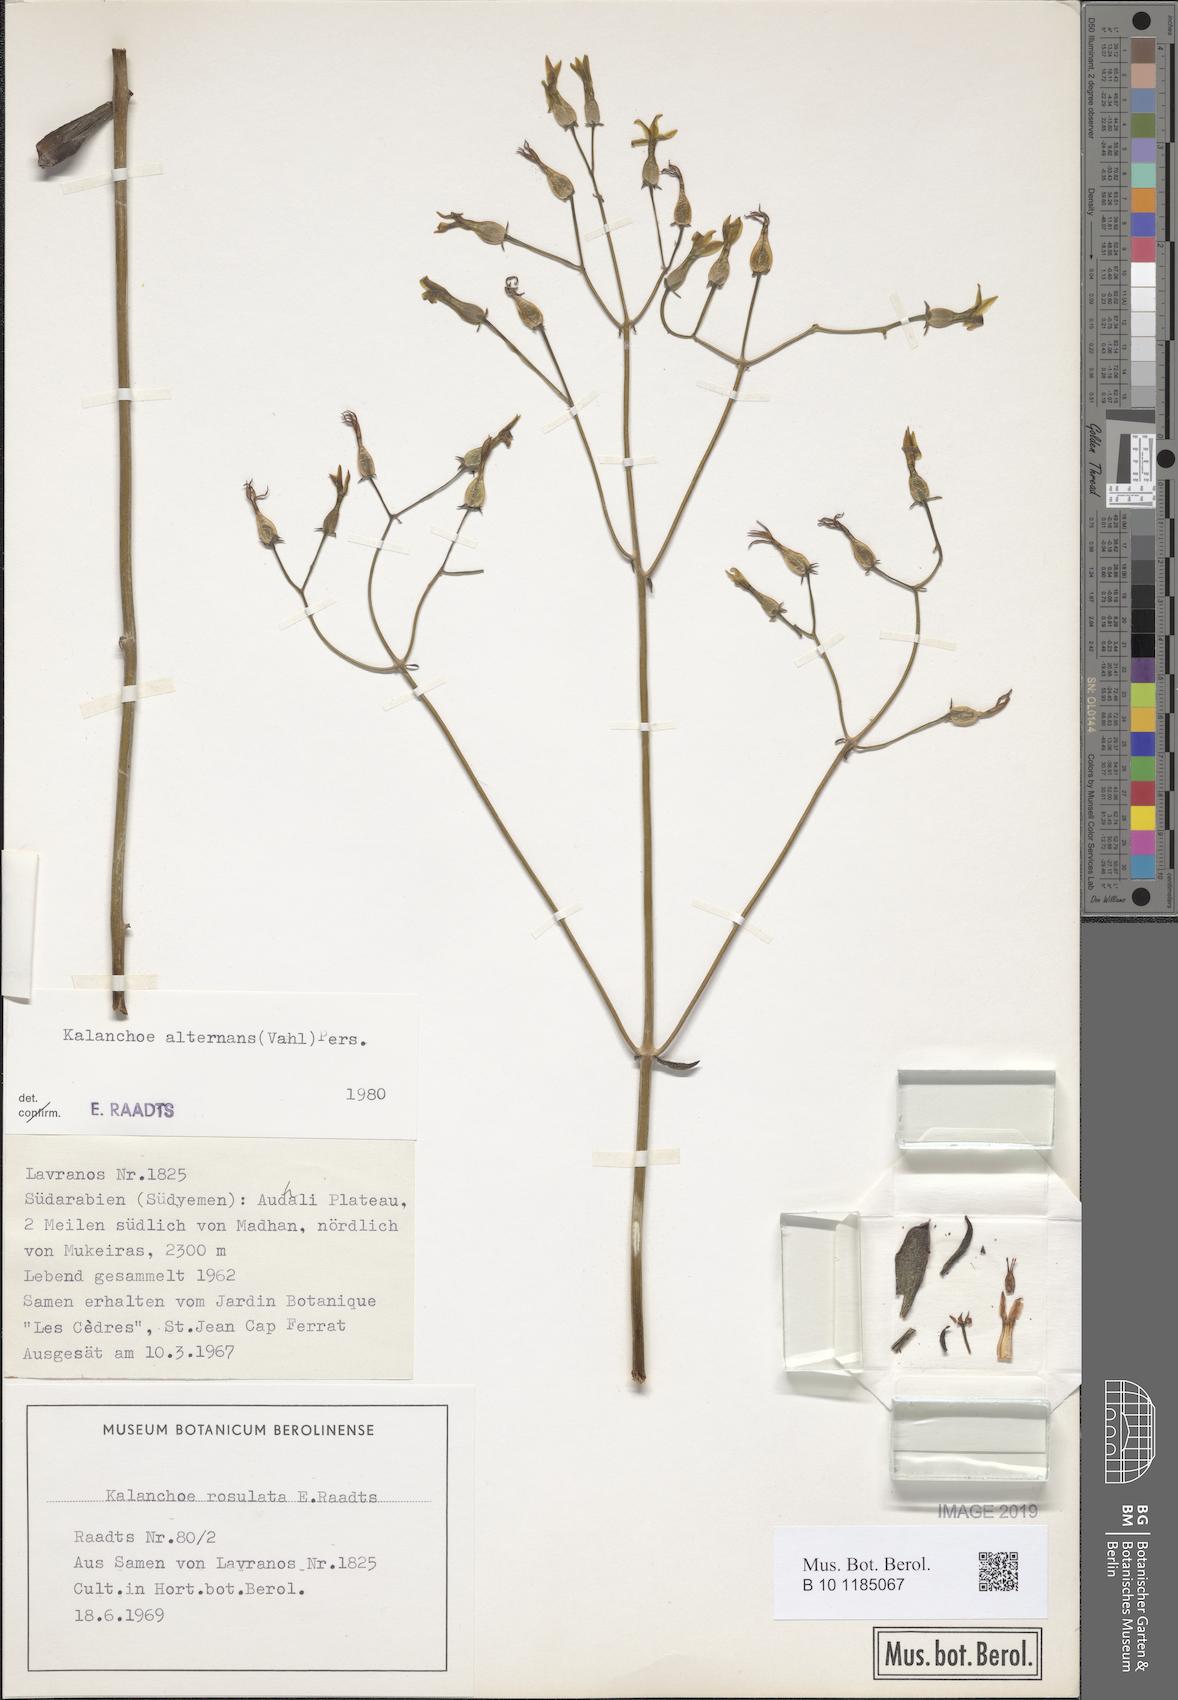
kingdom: Plantae
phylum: Tracheophyta
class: Magnoliopsida
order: Saxifragales
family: Crassulaceae
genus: Kalanchoe
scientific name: Kalanchoe alternans
